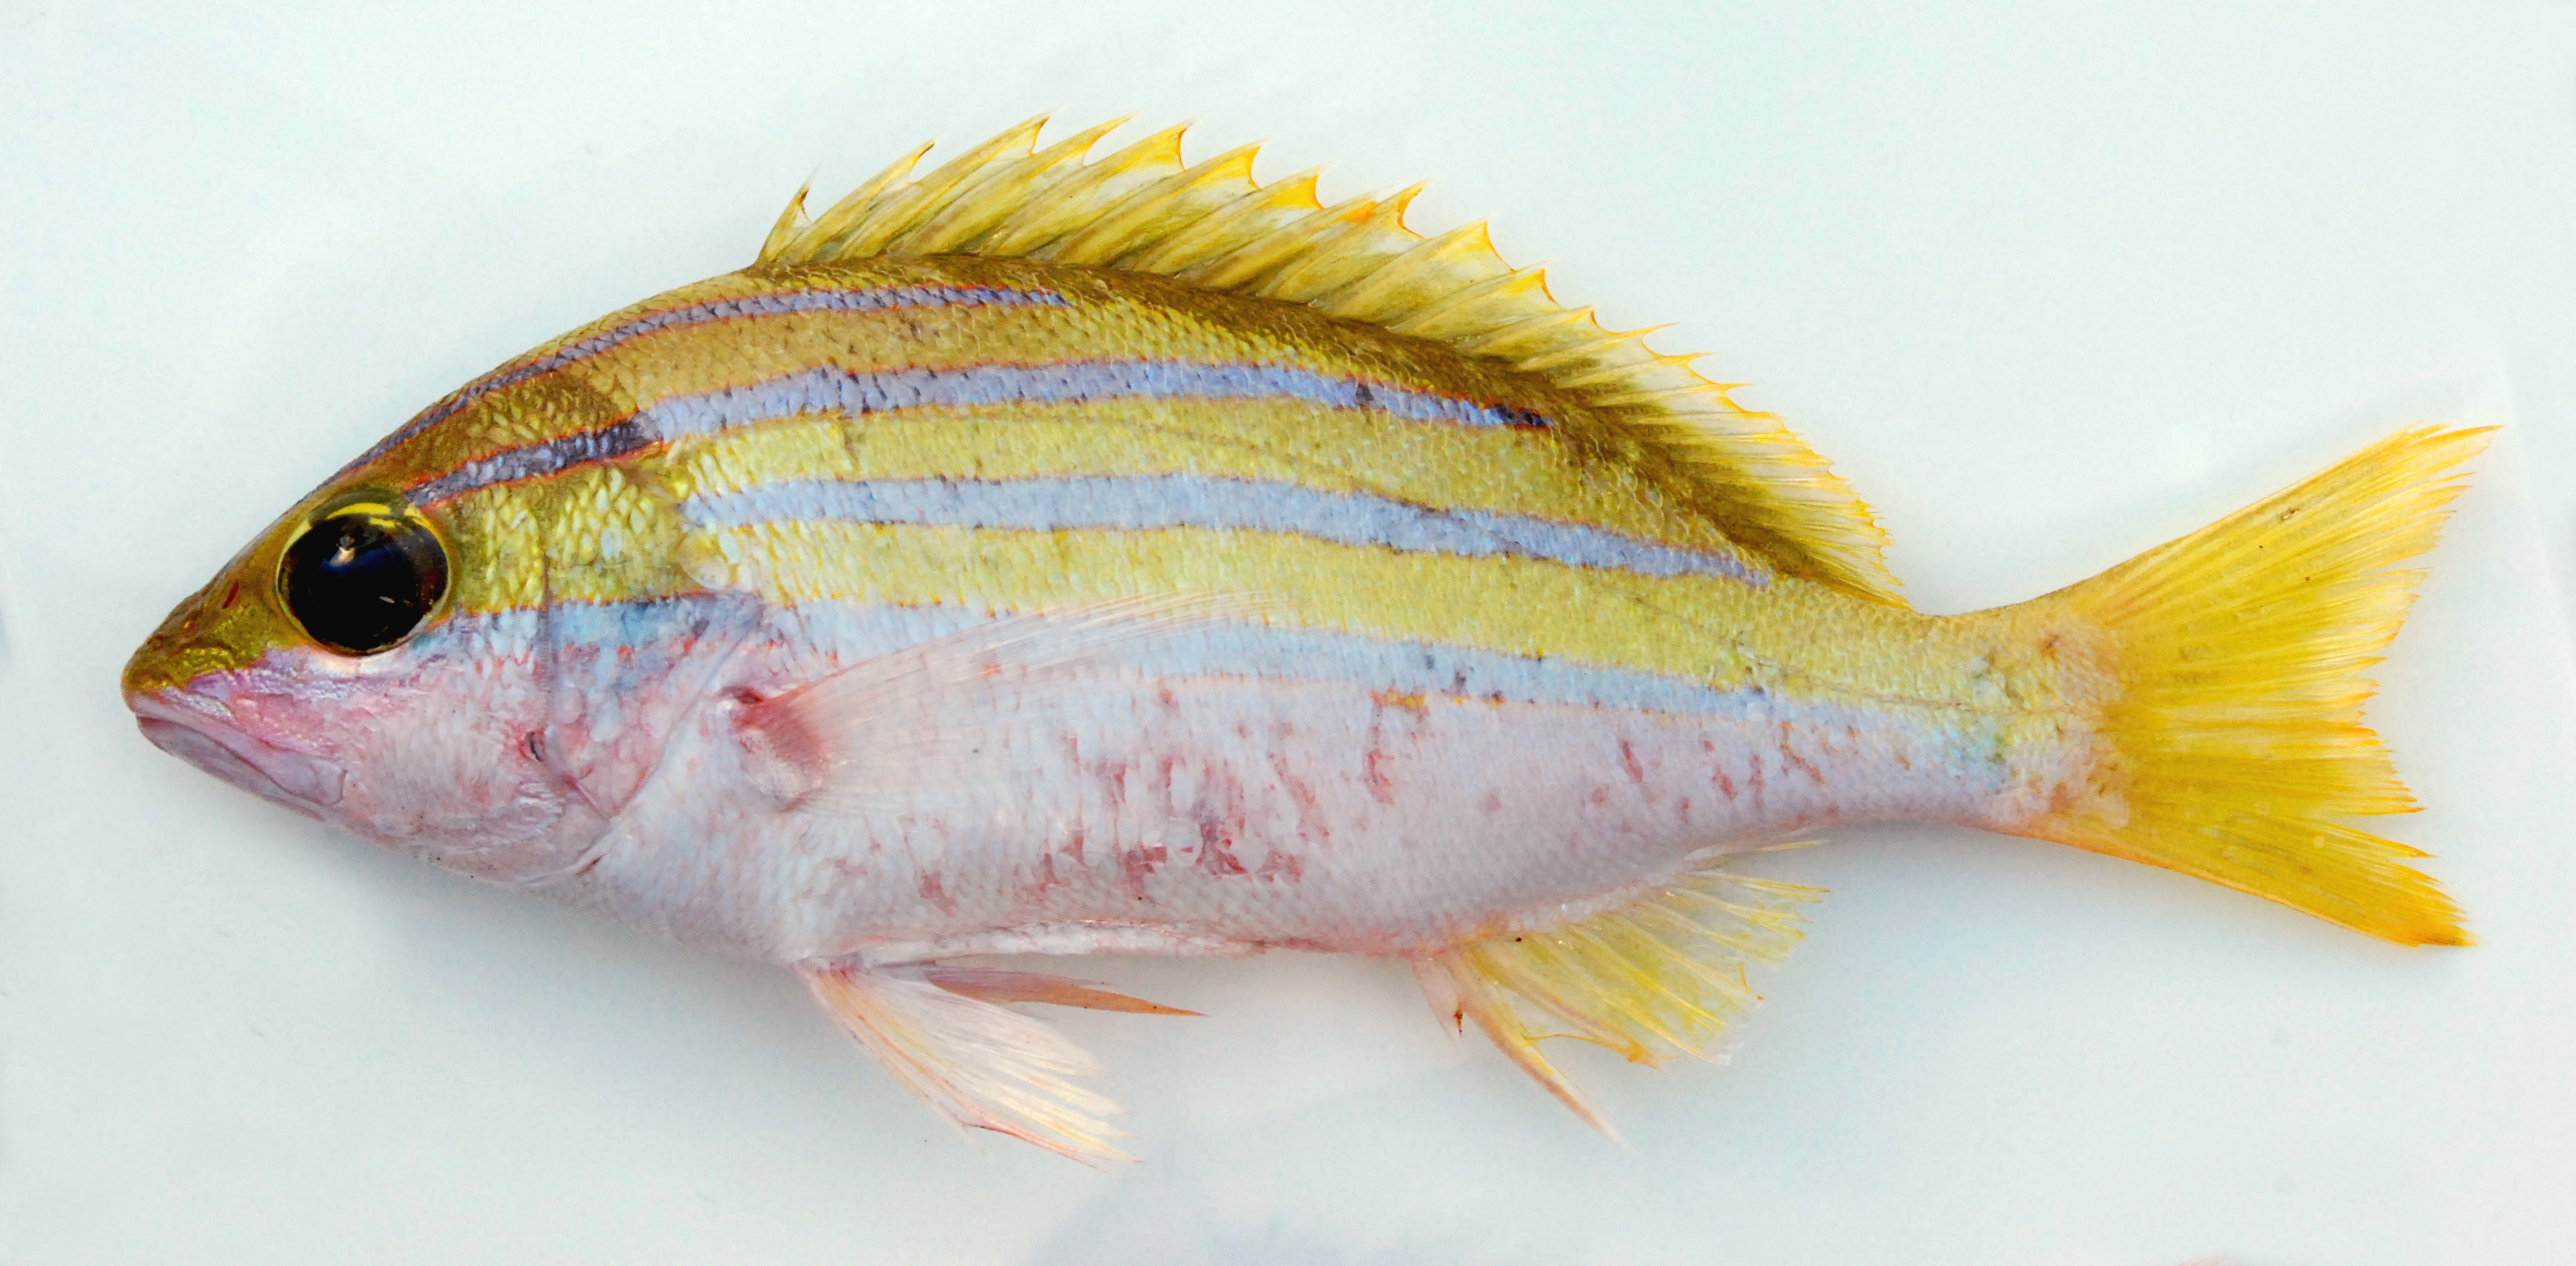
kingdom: Animalia
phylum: Chordata
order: Perciformes
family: Lutjanidae
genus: Lutjanus
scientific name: Lutjanus bengalensis
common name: Bengal snapper
